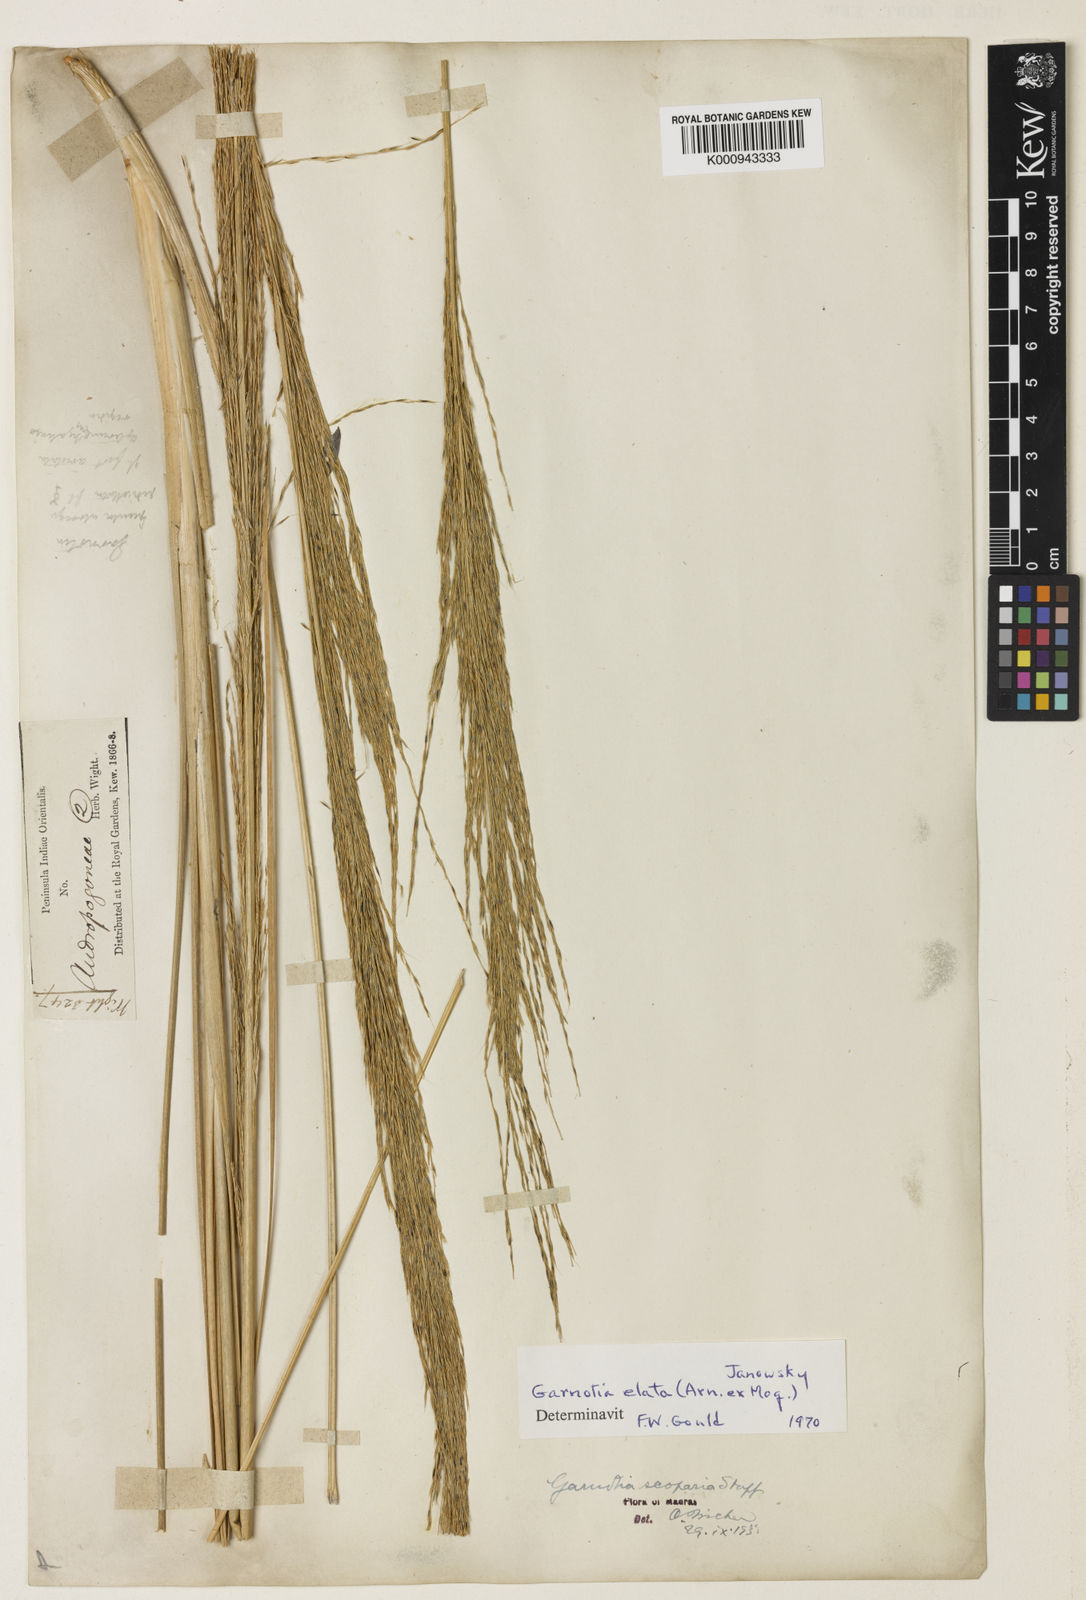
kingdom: Plantae
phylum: Tracheophyta
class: Liliopsida
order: Poales
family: Poaceae
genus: Garnotia
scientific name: Garnotia elata
